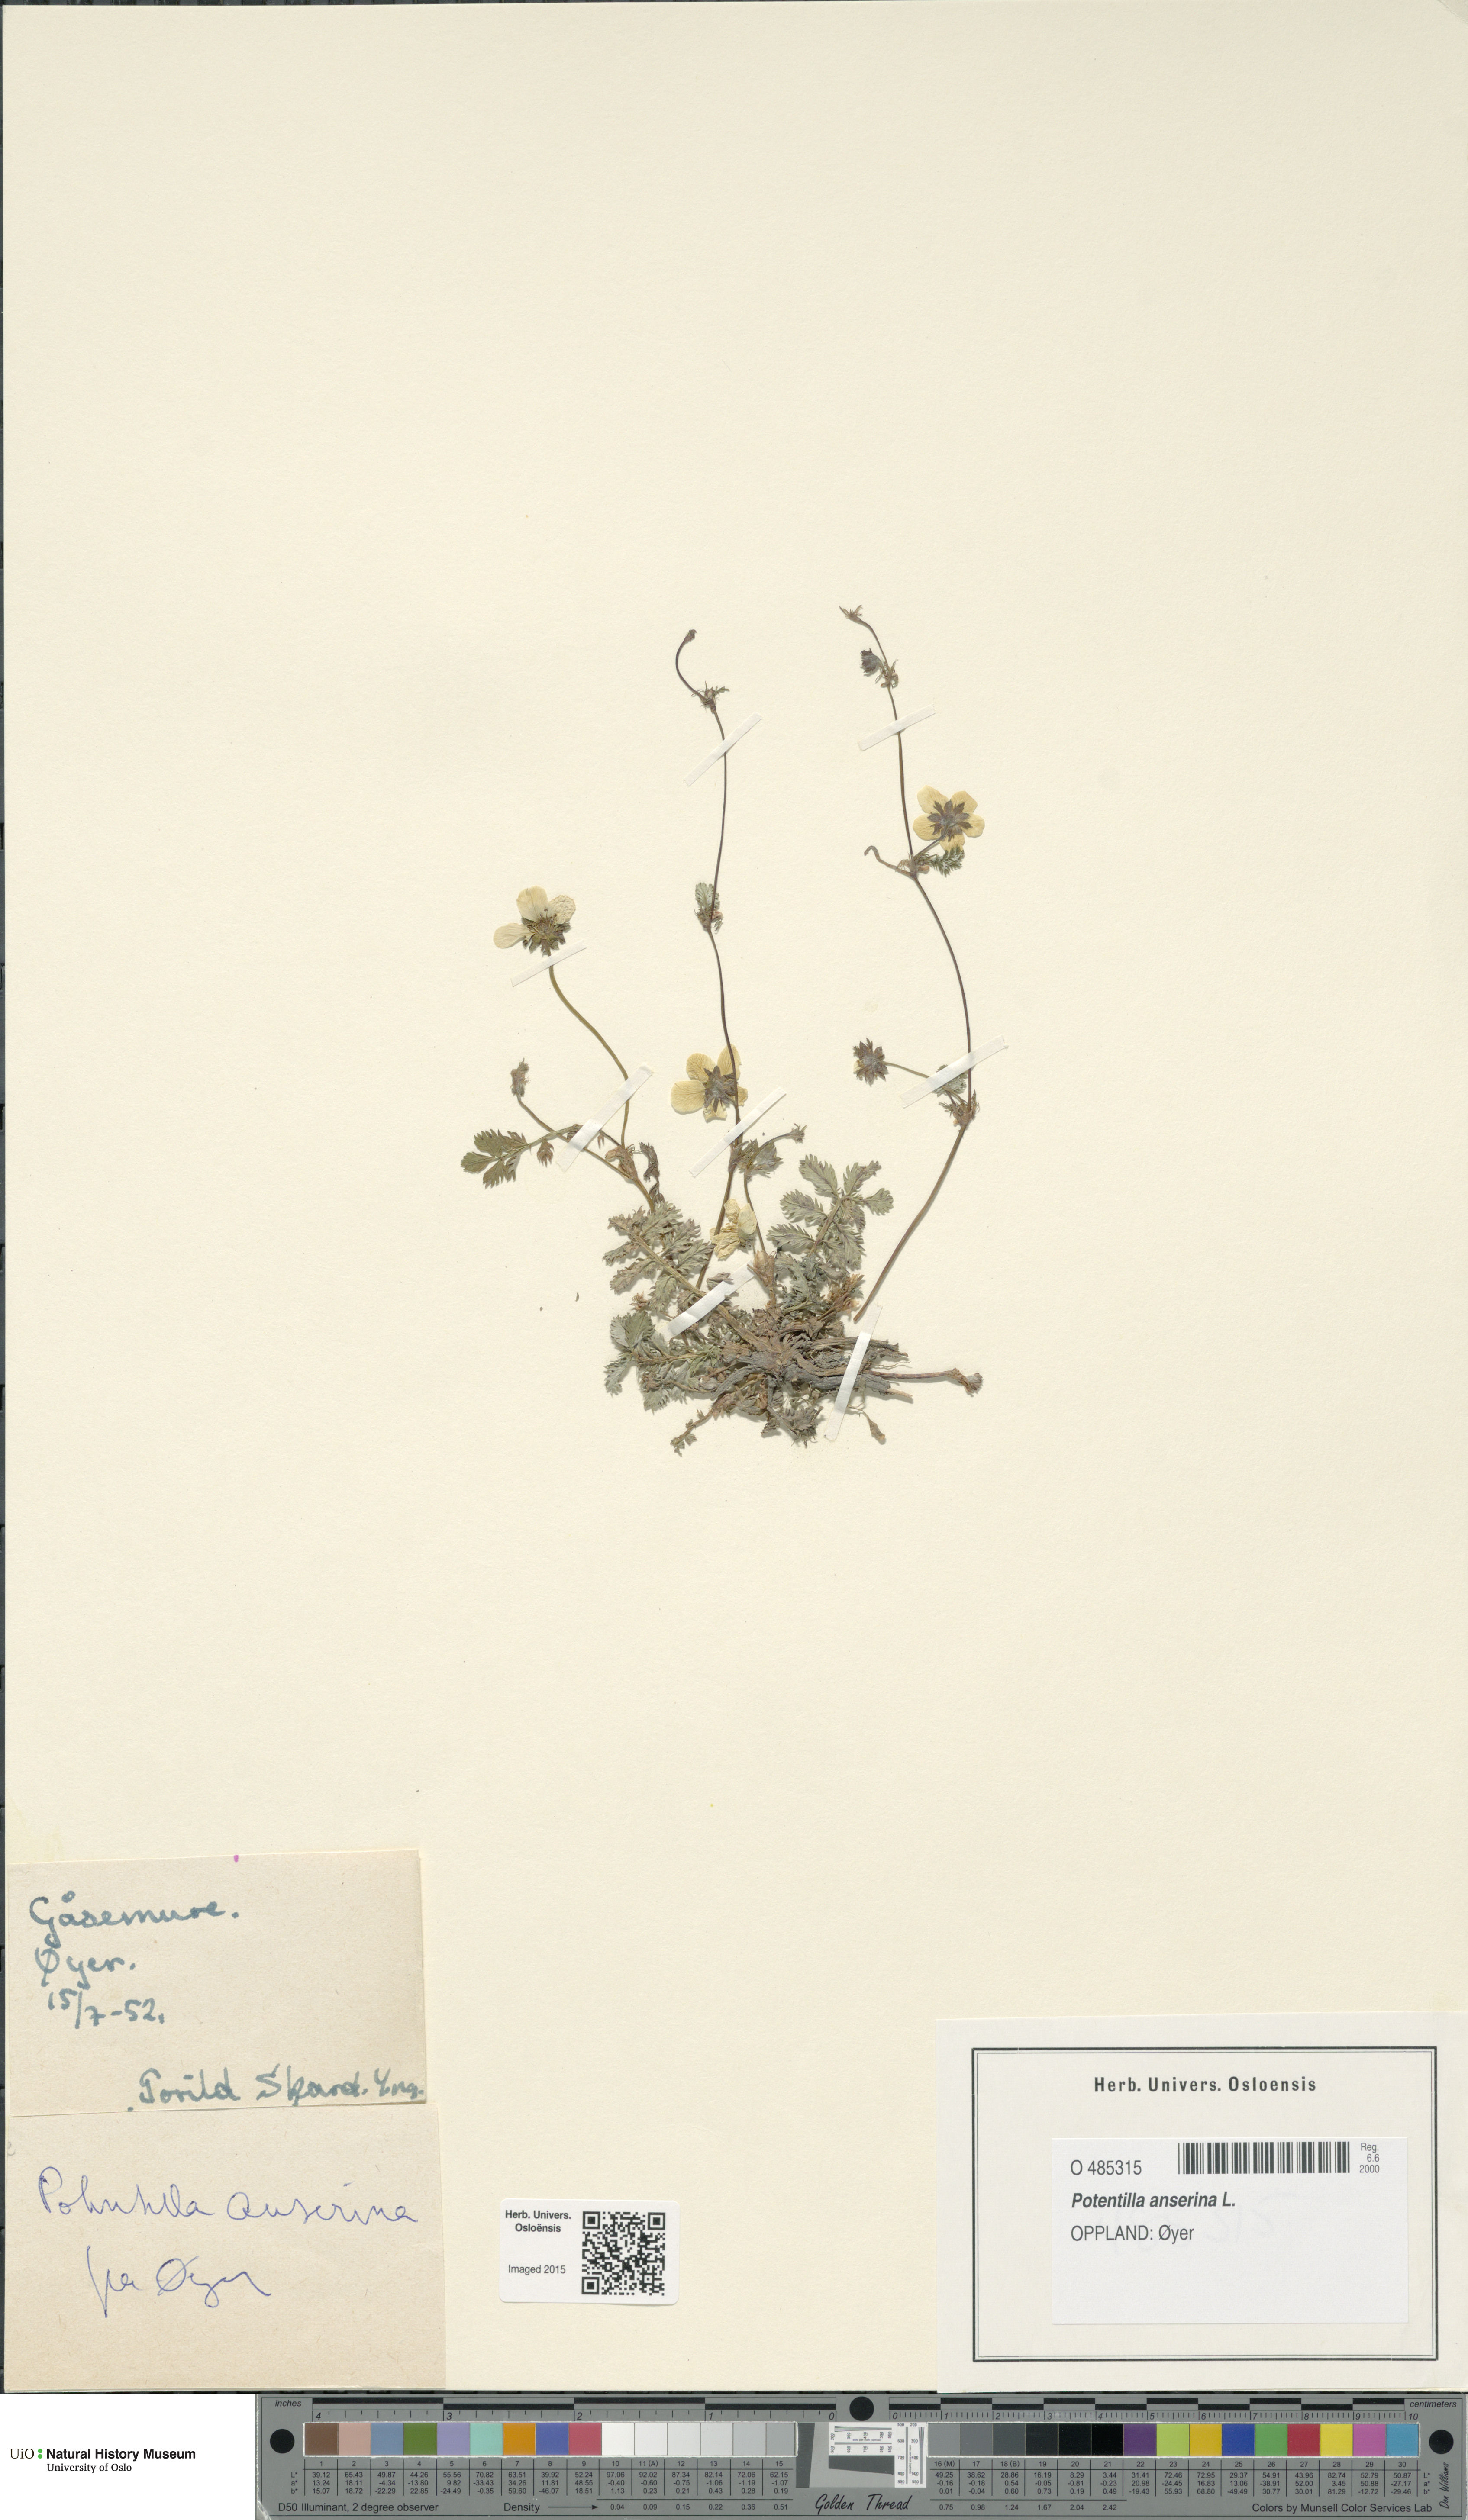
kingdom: Plantae
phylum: Tracheophyta
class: Magnoliopsida
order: Rosales
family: Rosaceae
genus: Argentina
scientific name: Argentina anserina
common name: Common silverweed
